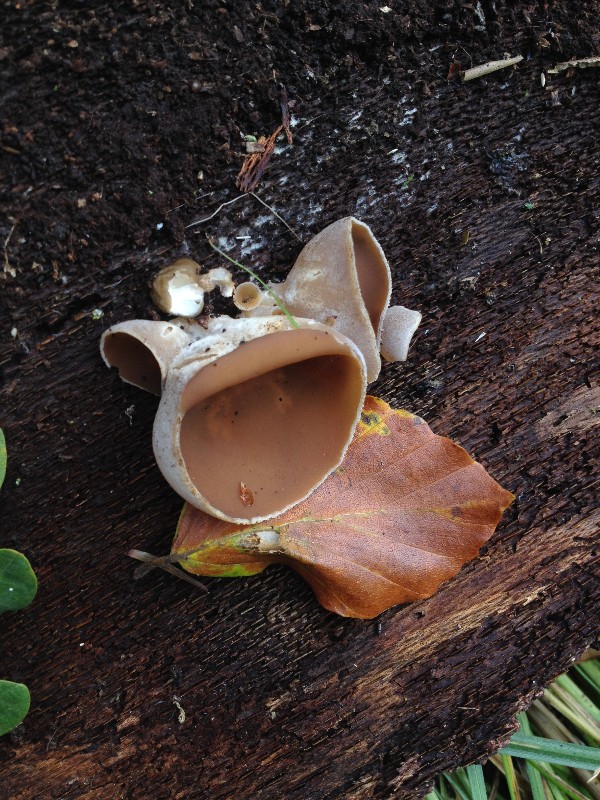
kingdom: Fungi
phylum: Ascomycota
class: Pezizomycetes
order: Pezizales
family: Pezizaceae
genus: Legaliana
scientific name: Legaliana badia
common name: leverbrun bægersvamp
